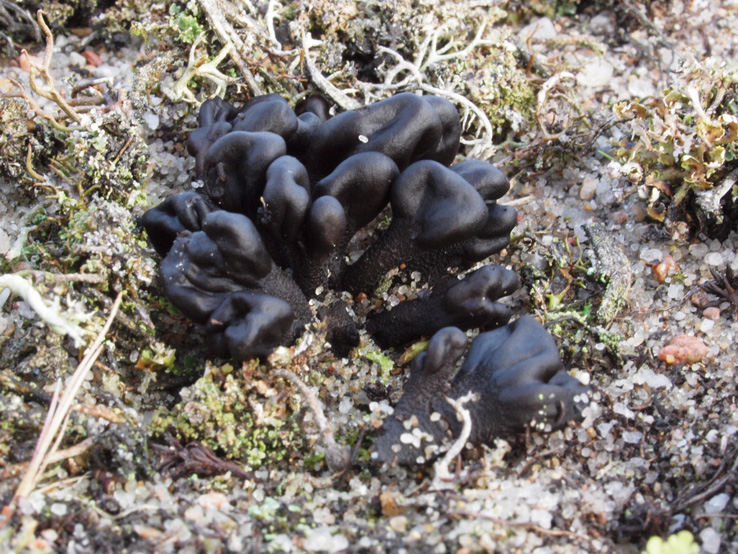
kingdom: Fungi
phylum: Ascomycota
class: Geoglossomycetes
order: Geoglossales
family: Geoglossaceae
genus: Sabuloglossum
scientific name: Sabuloglossum arenarium
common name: klit-jordtunge
